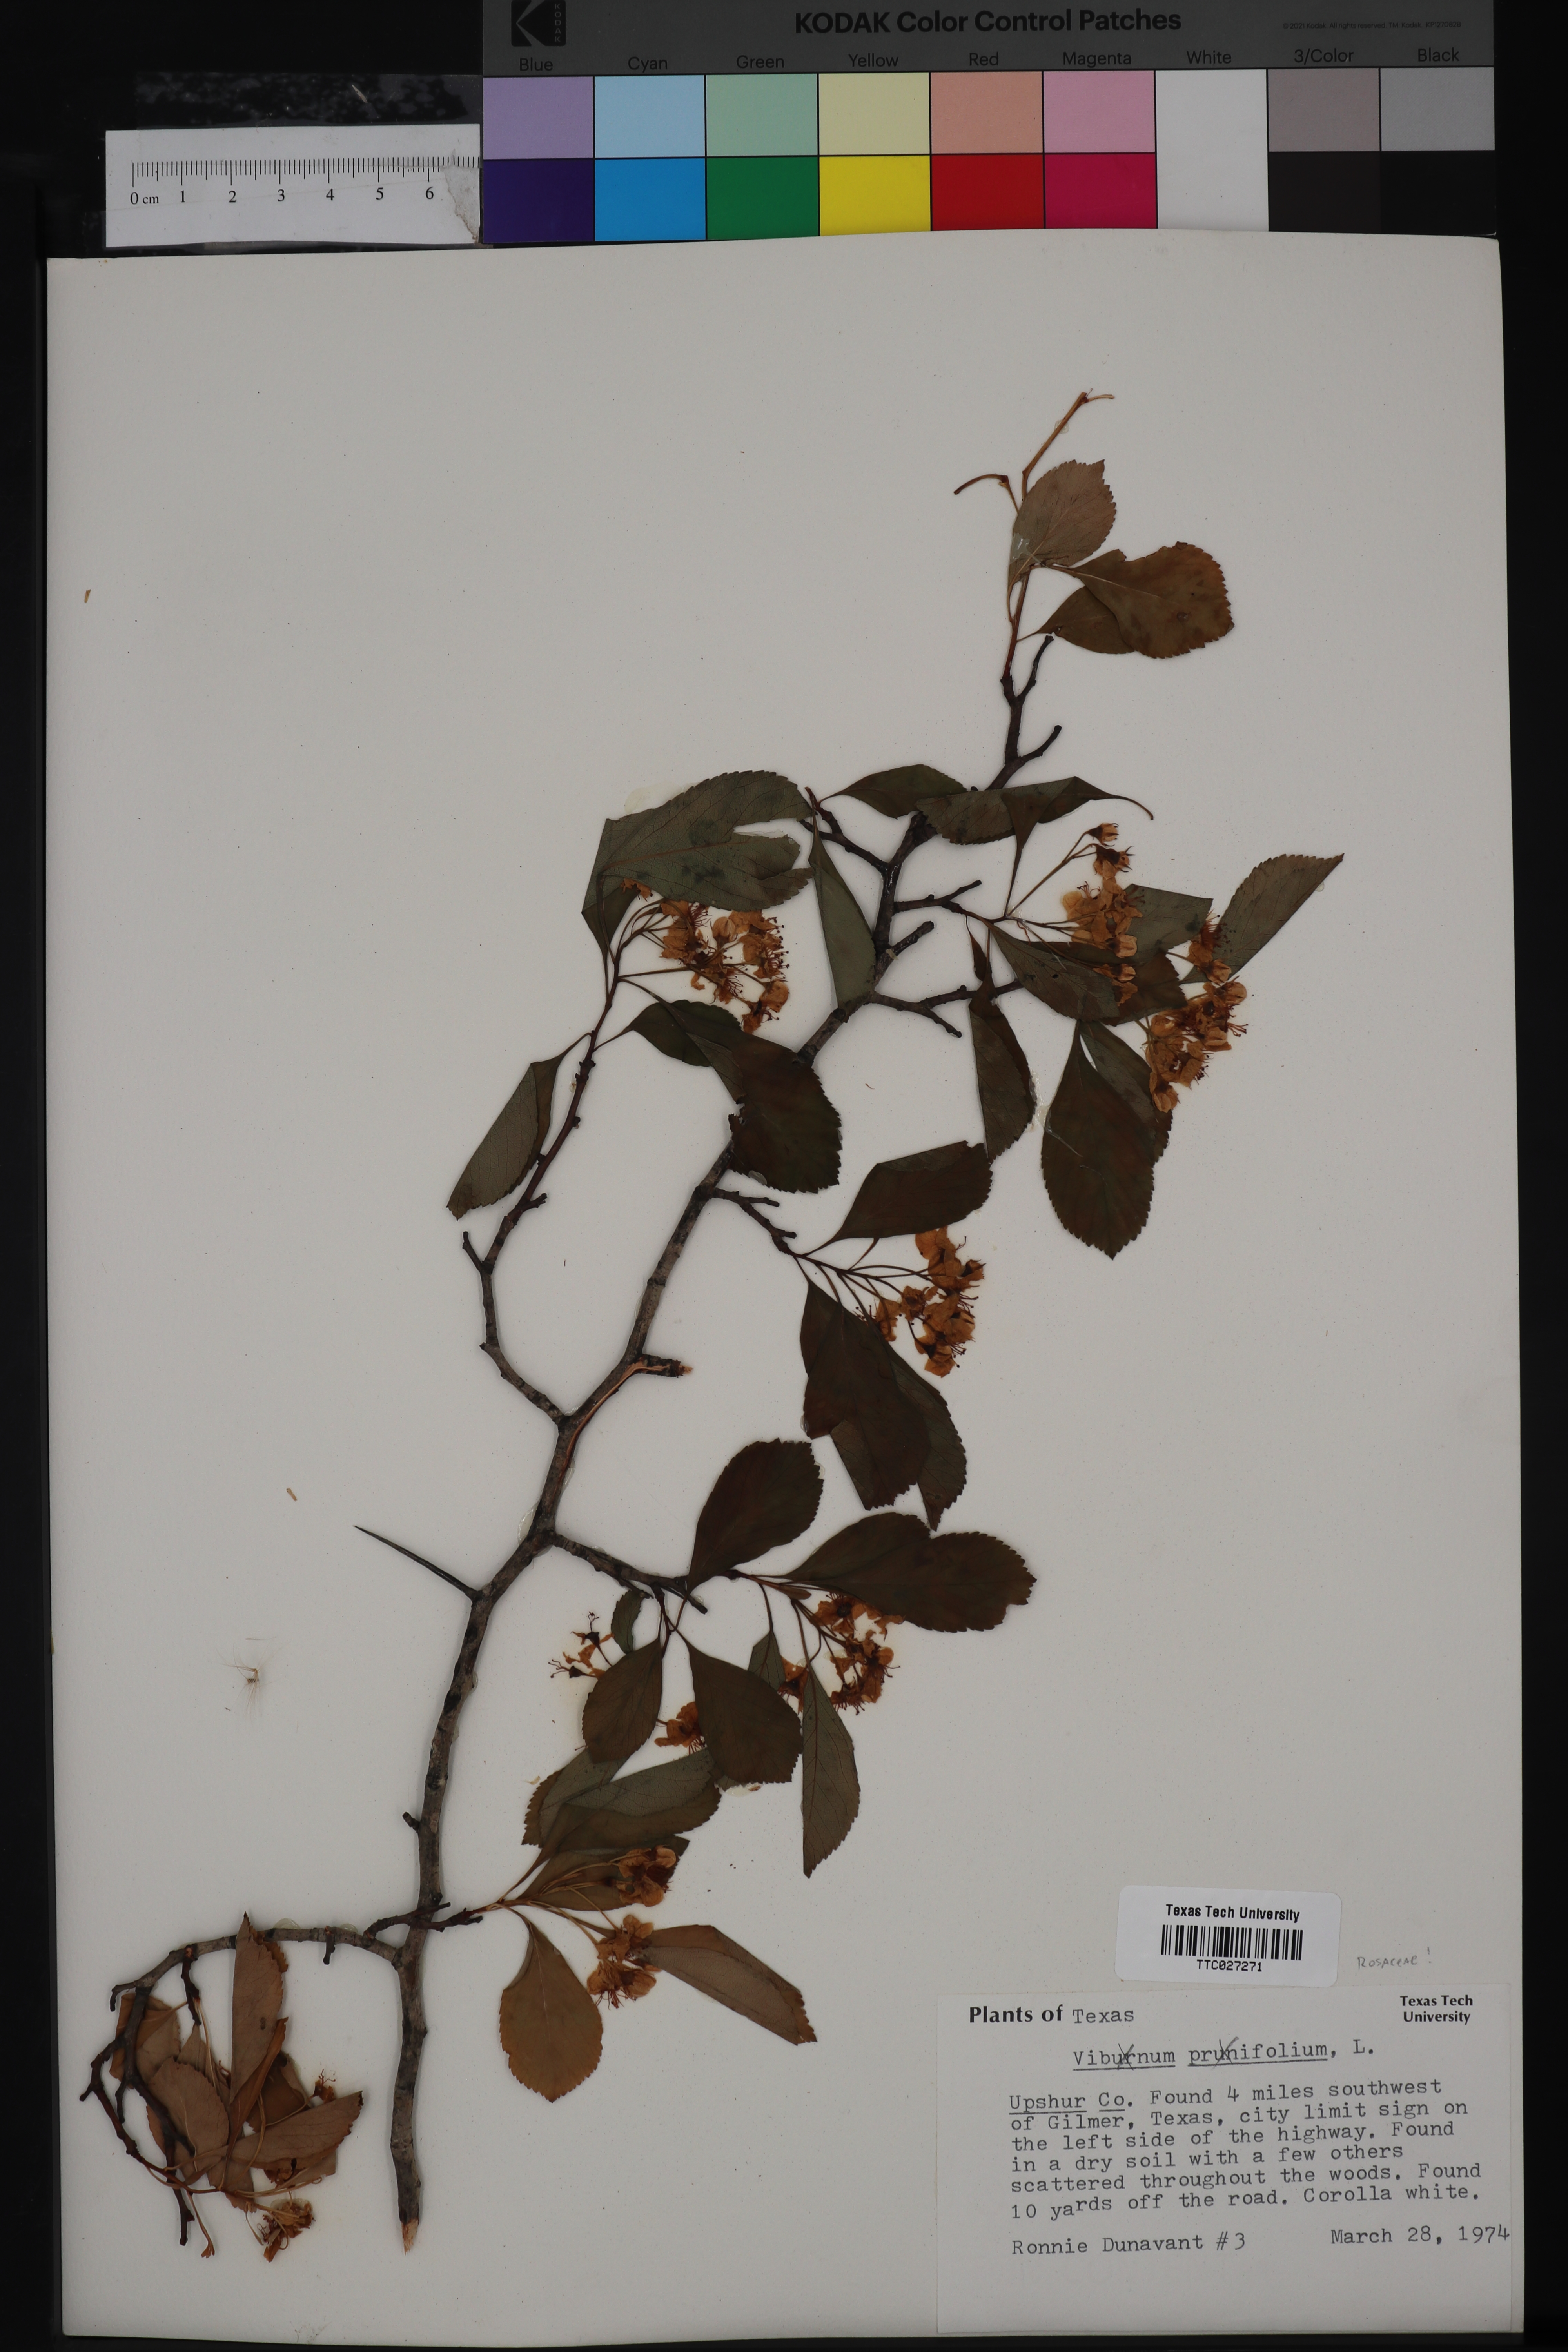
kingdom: Plantae
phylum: Tracheophyta
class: Magnoliopsida
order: Dipsacales
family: Viburnaceae
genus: Viburnum
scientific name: Viburnum prunifolium
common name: Black haw
